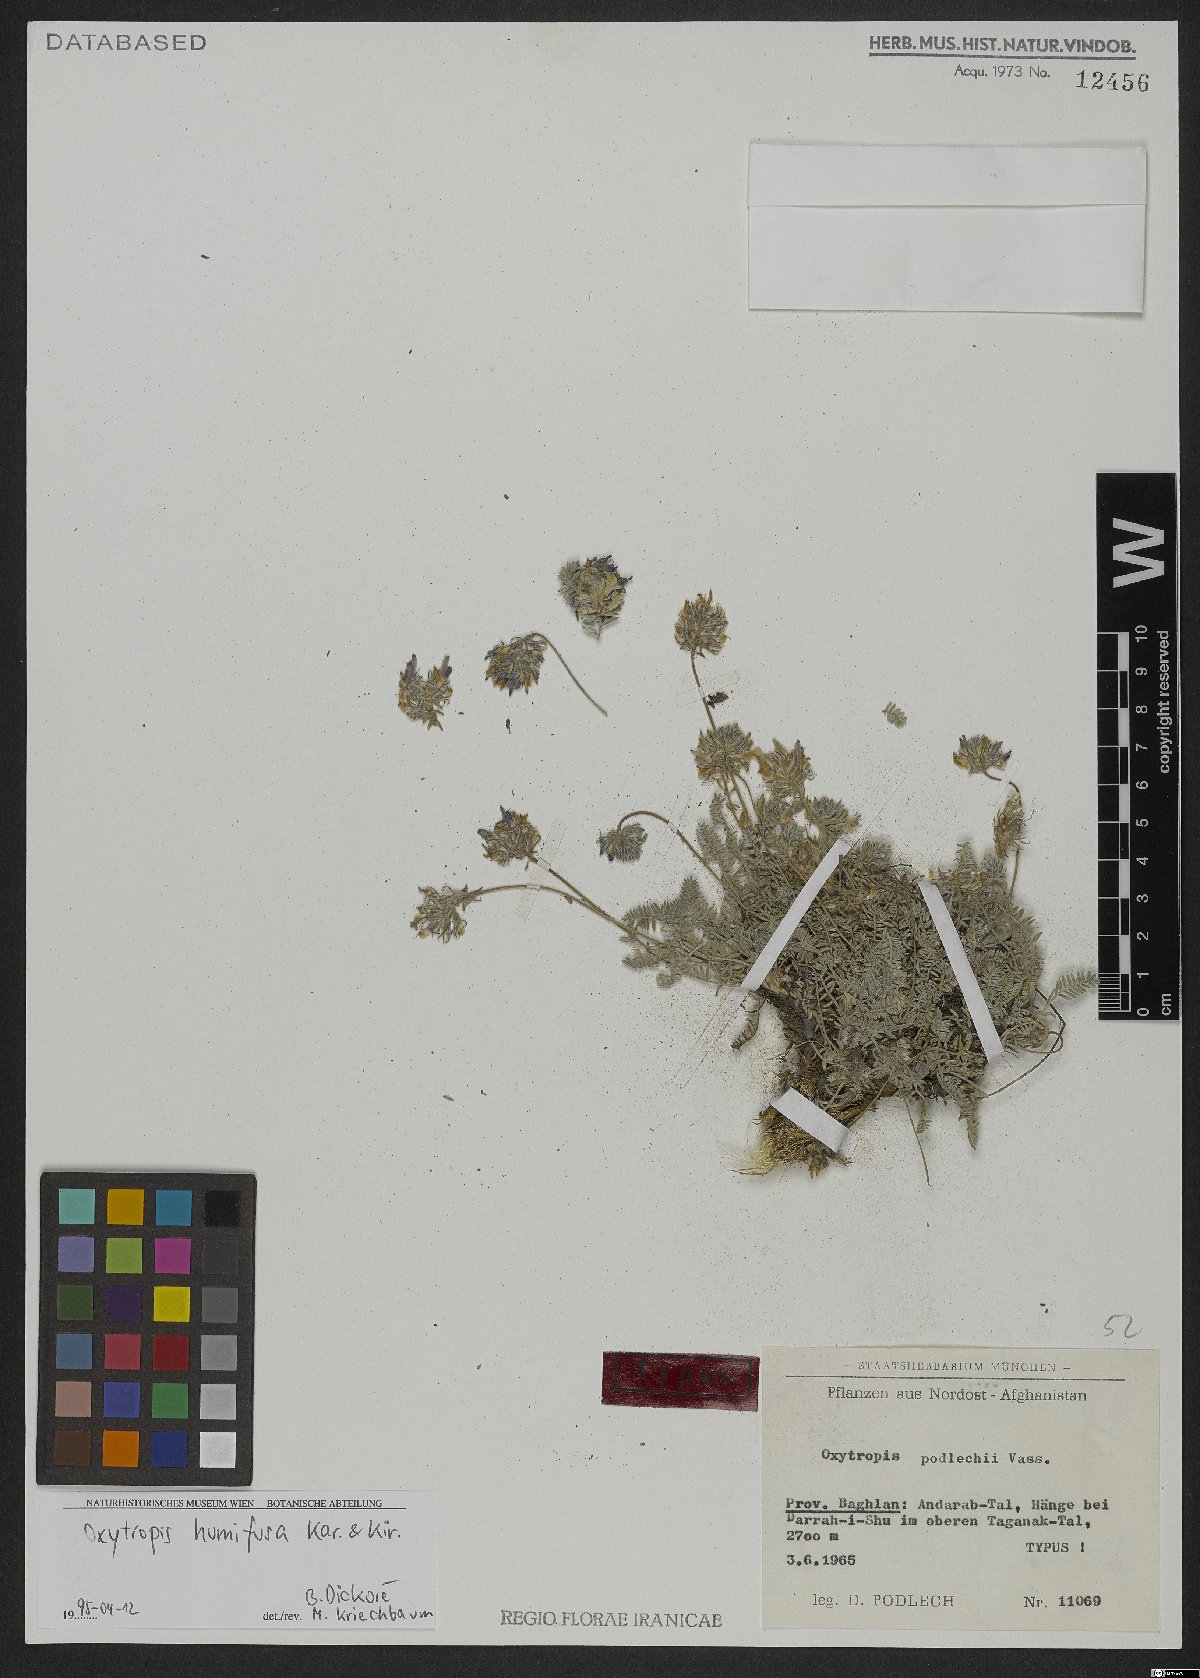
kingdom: Plantae
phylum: Tracheophyta
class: Magnoliopsida
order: Fabales
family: Fabaceae
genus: Oxytropis
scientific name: Oxytropis humifusa
